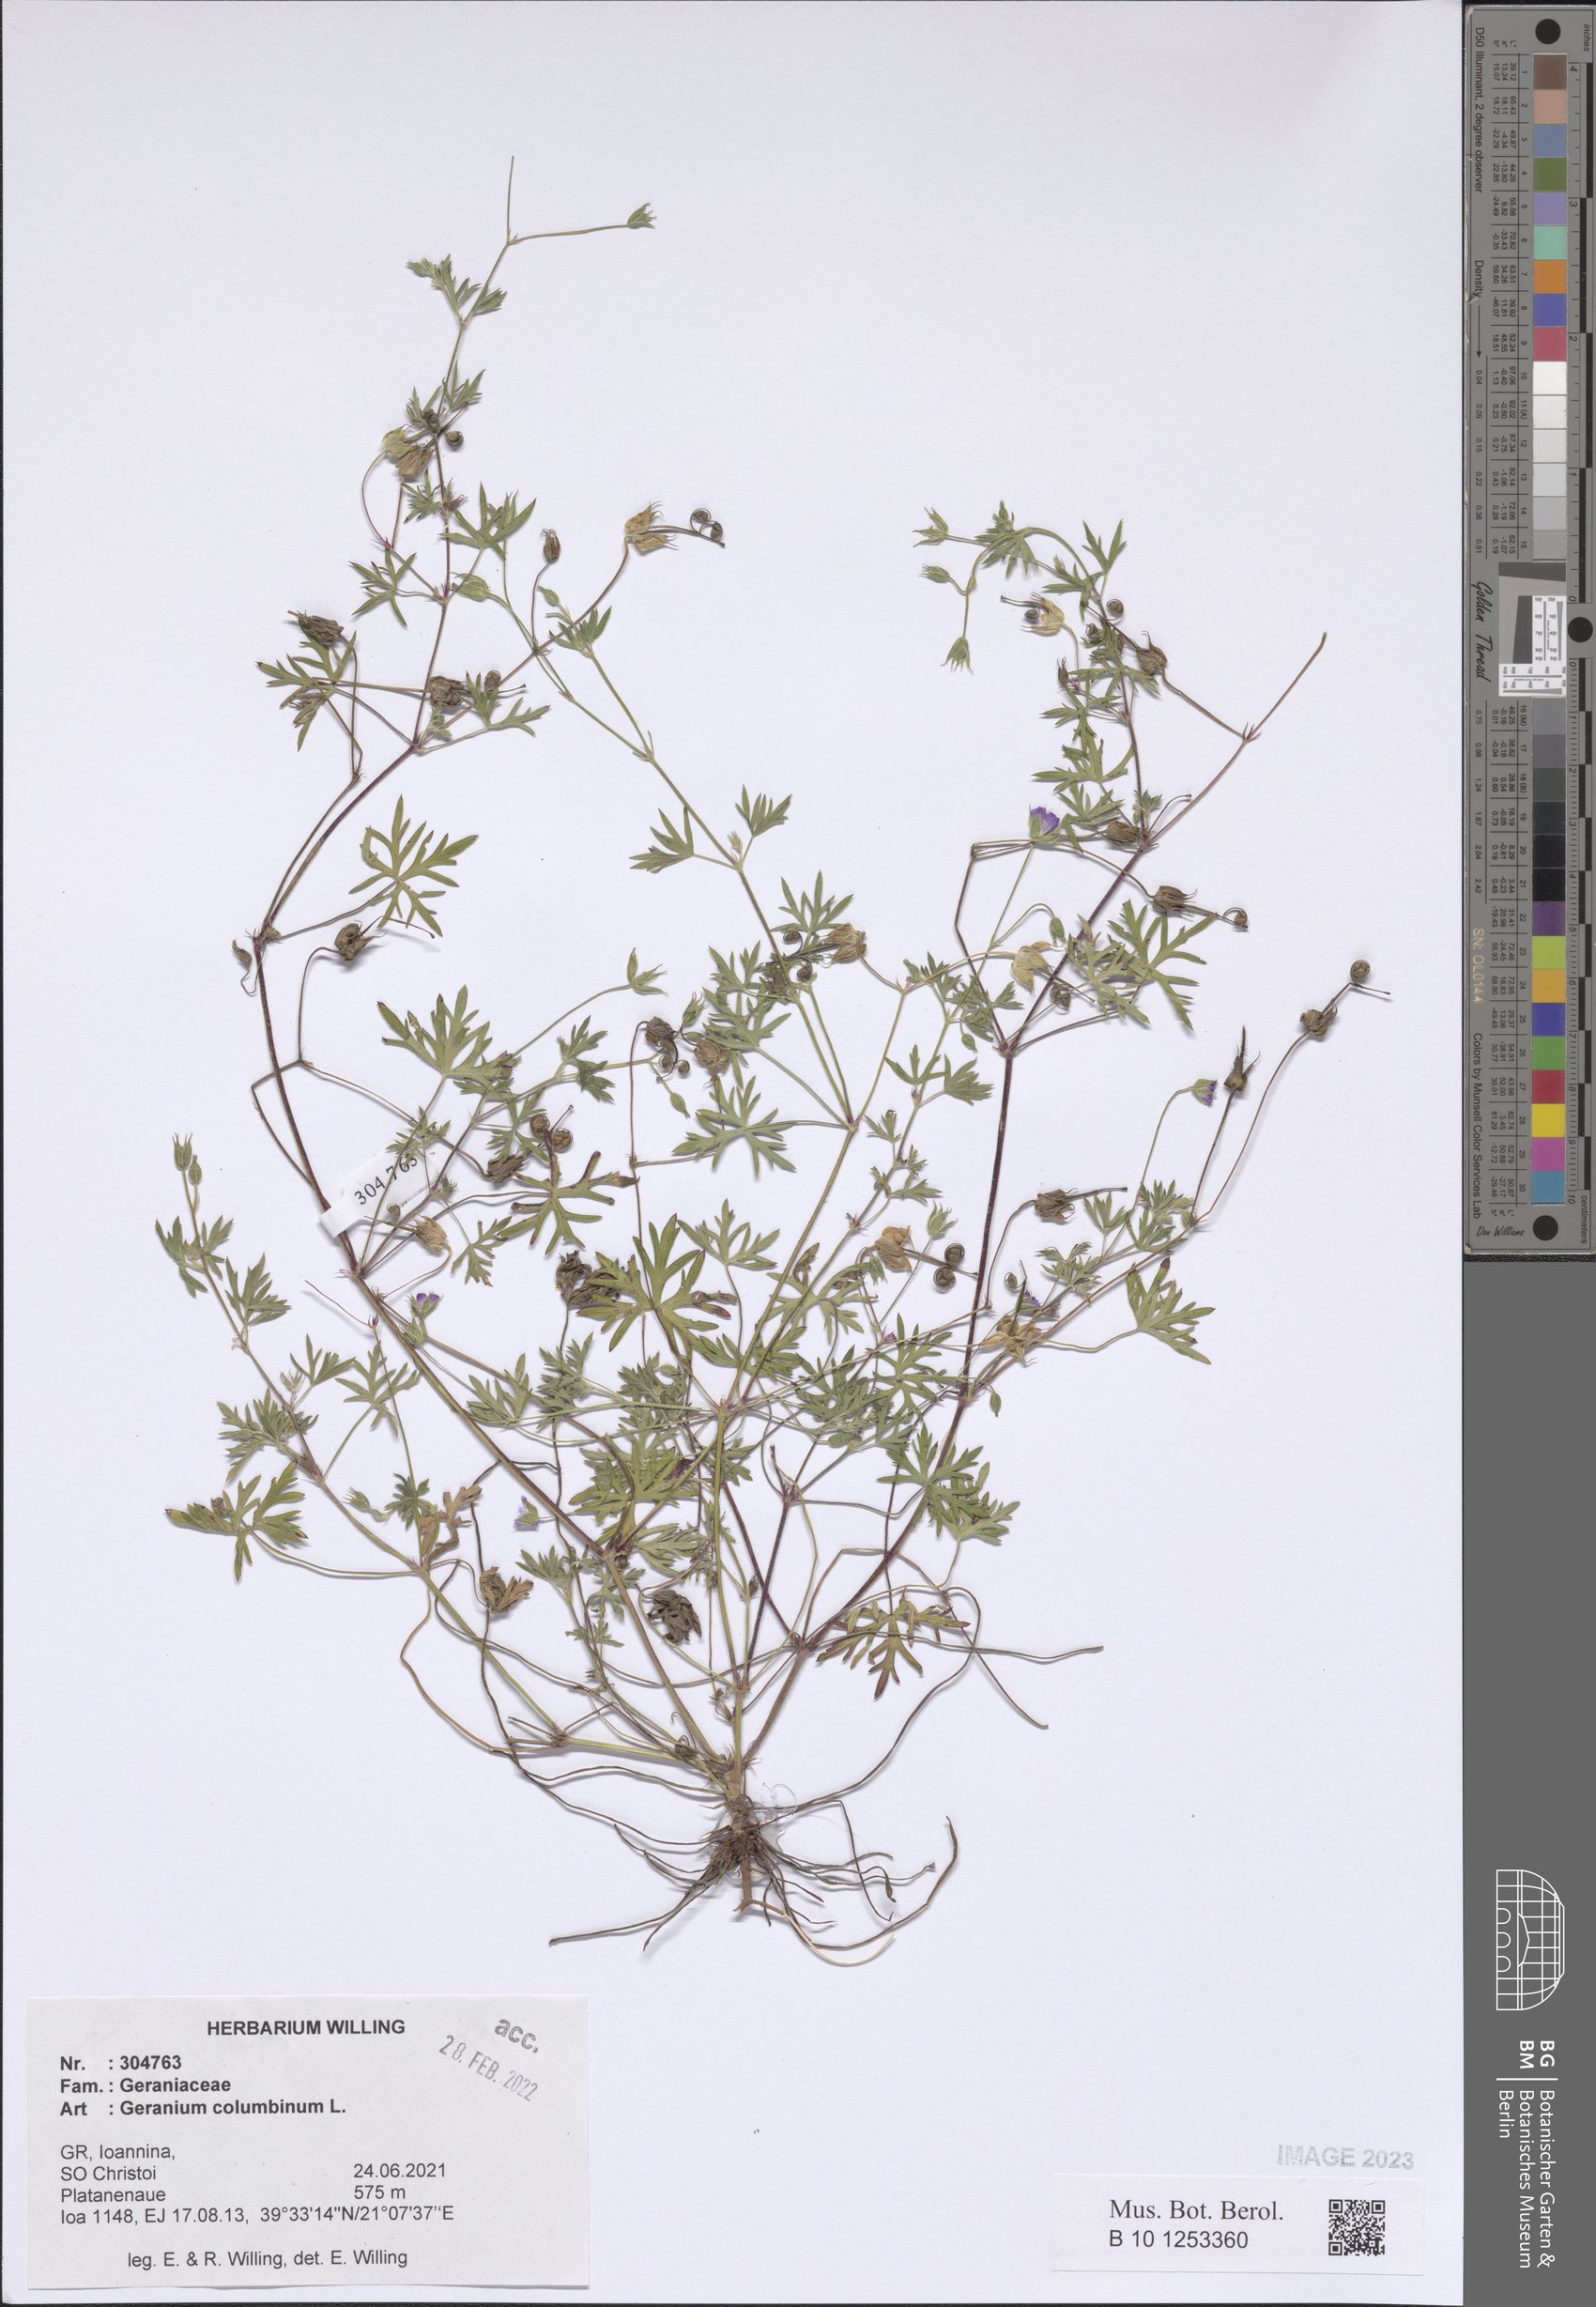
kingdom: Plantae
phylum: Tracheophyta
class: Magnoliopsida
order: Geraniales
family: Geraniaceae
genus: Geranium
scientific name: Geranium columbinum
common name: Long-stalked crane's-bill
